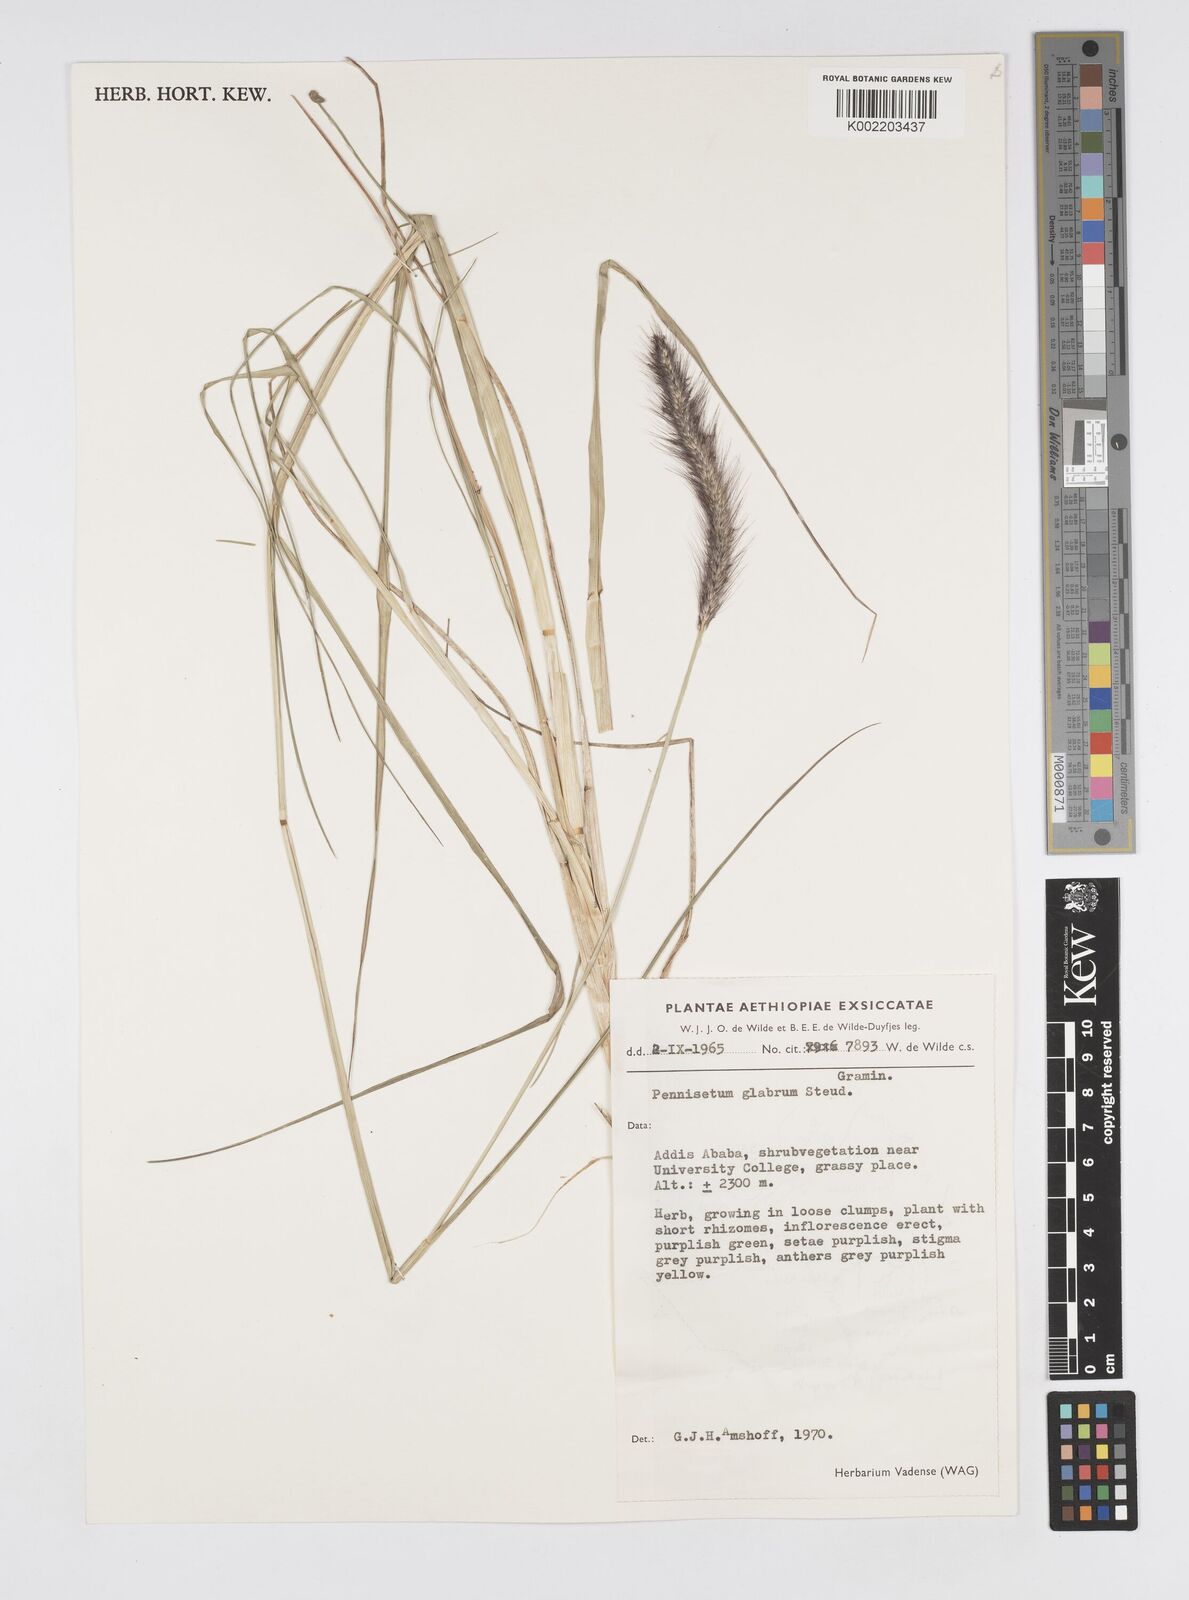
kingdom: Plantae
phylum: Tracheophyta
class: Liliopsida
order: Poales
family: Poaceae
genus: Cenchrus
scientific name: Cenchrus geniculatus
